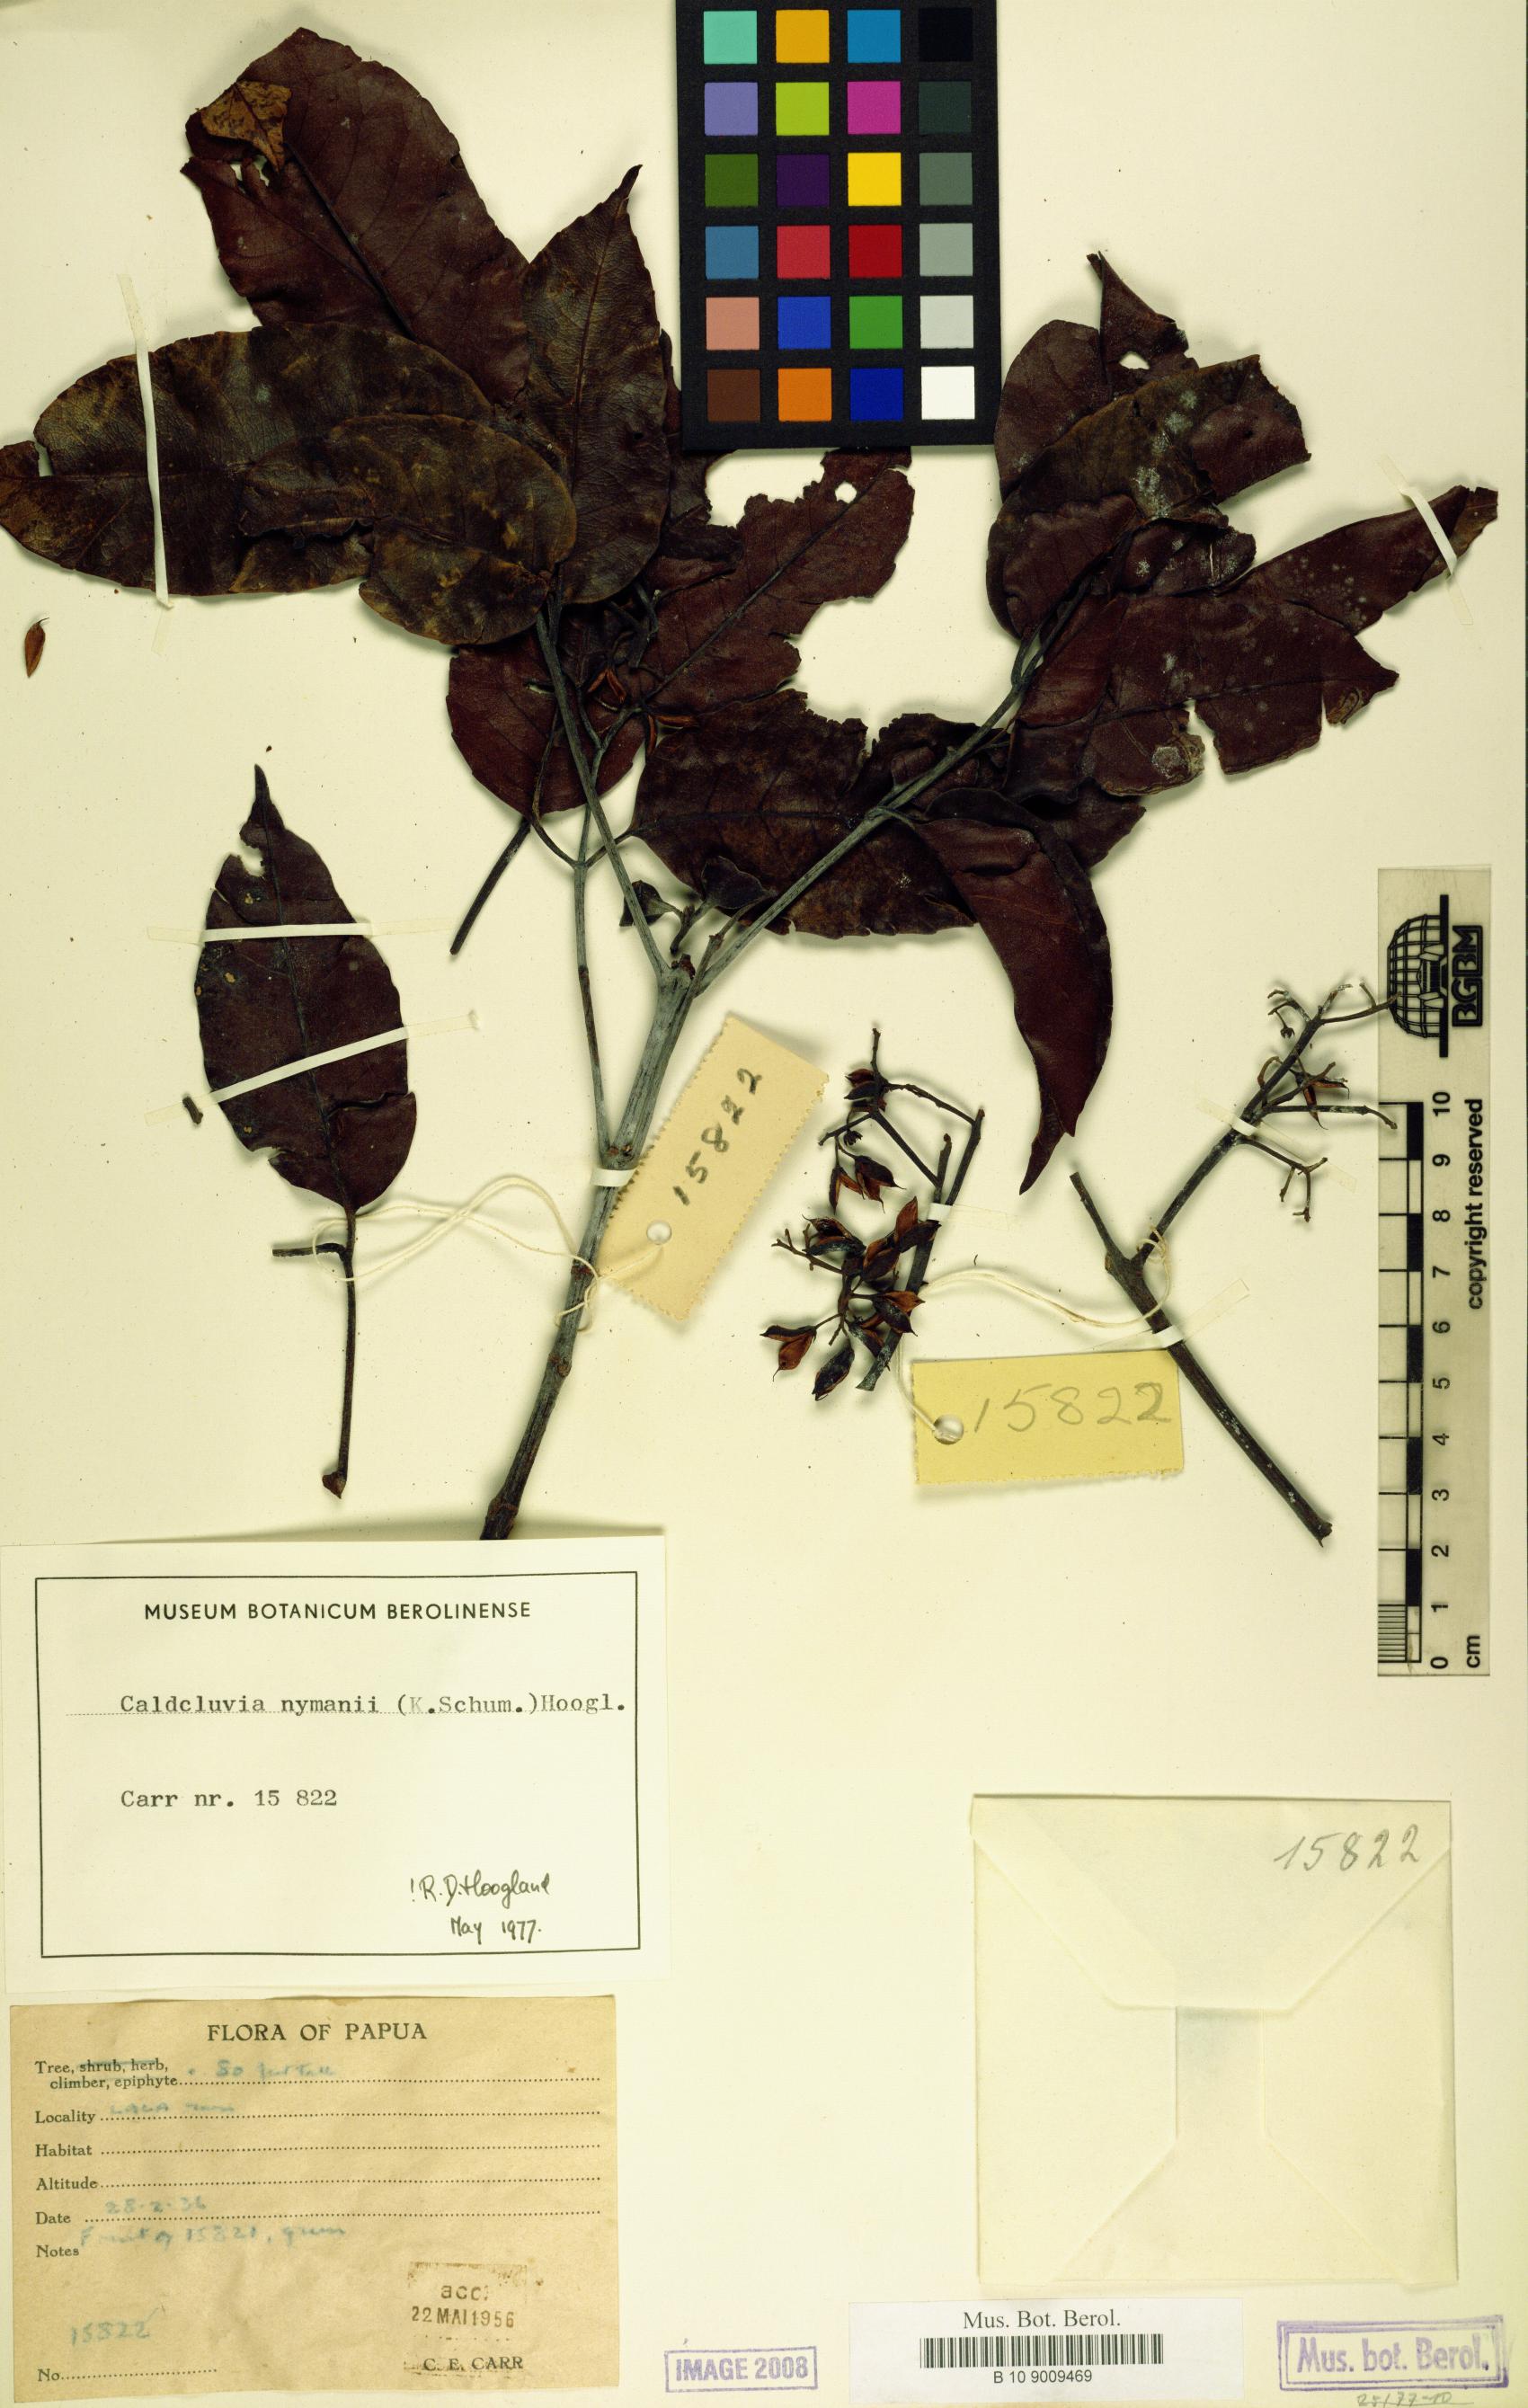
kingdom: Plantae
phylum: Tracheophyta
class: Magnoliopsida
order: Oxalidales
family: Cunoniaceae
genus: Opocunonia
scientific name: Opocunonia nymanii
